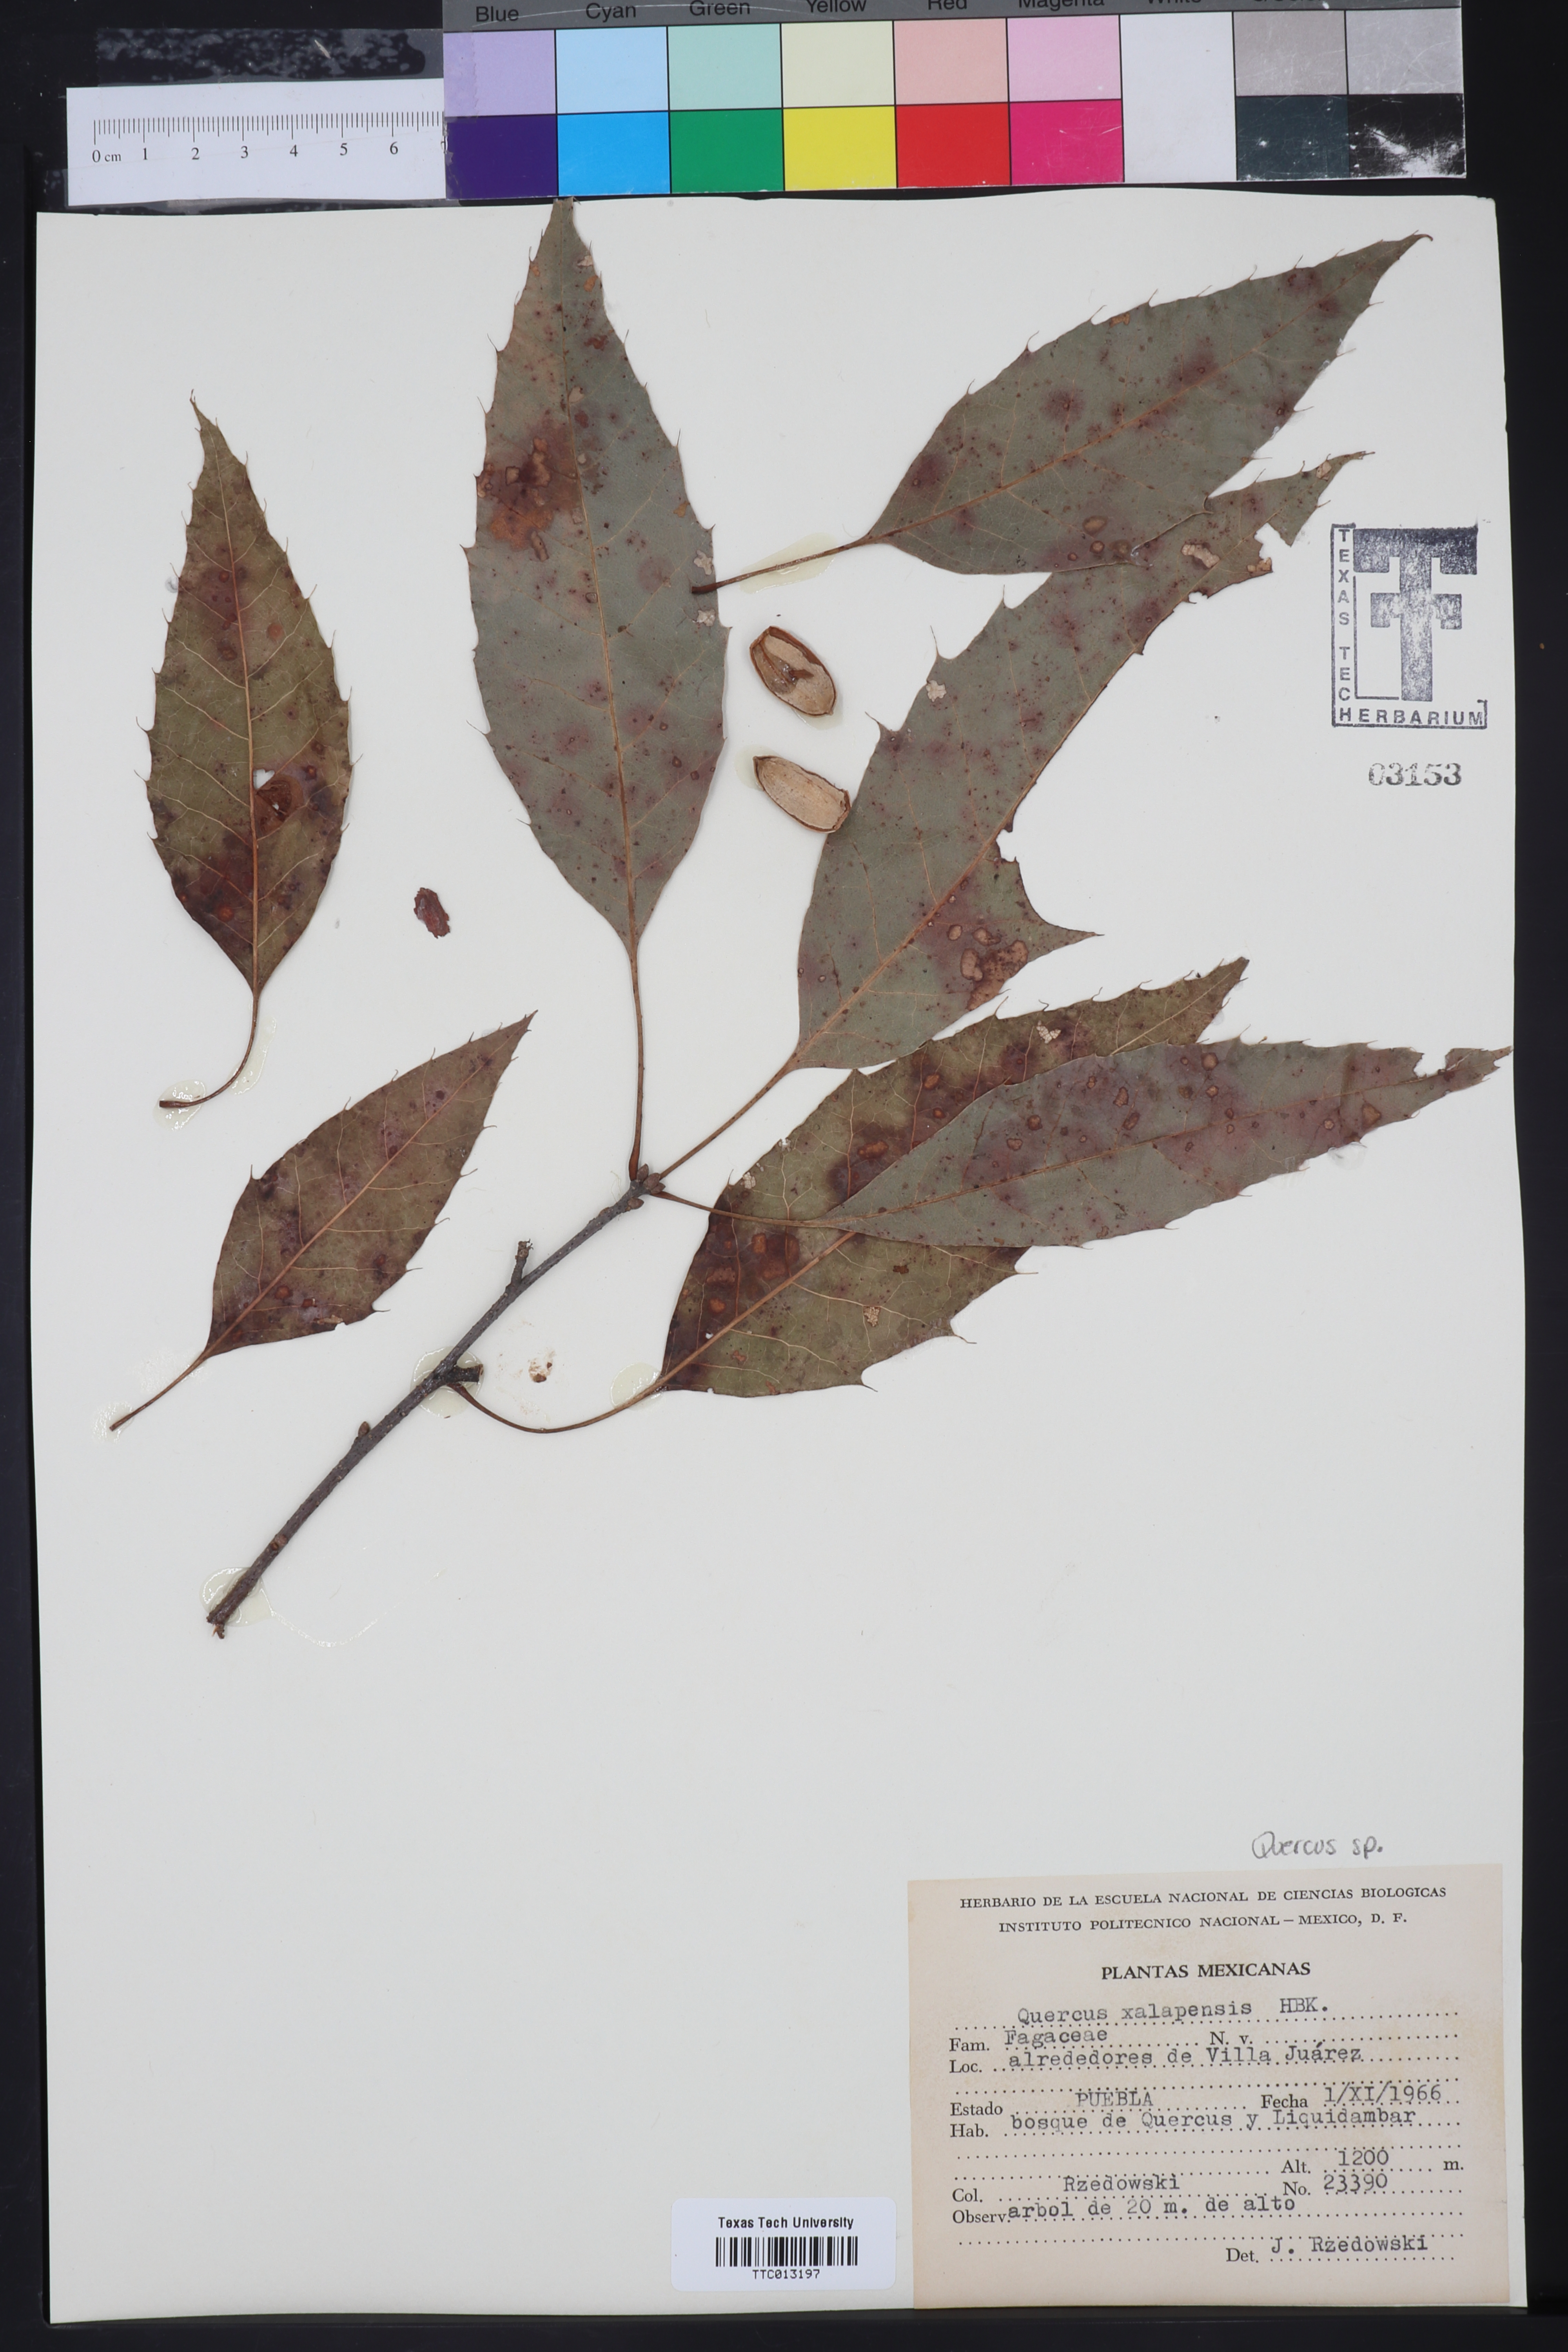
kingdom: Plantae
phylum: Tracheophyta
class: Magnoliopsida
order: Fagales
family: Fagaceae
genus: Quercus
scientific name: Quercus xalapensis
